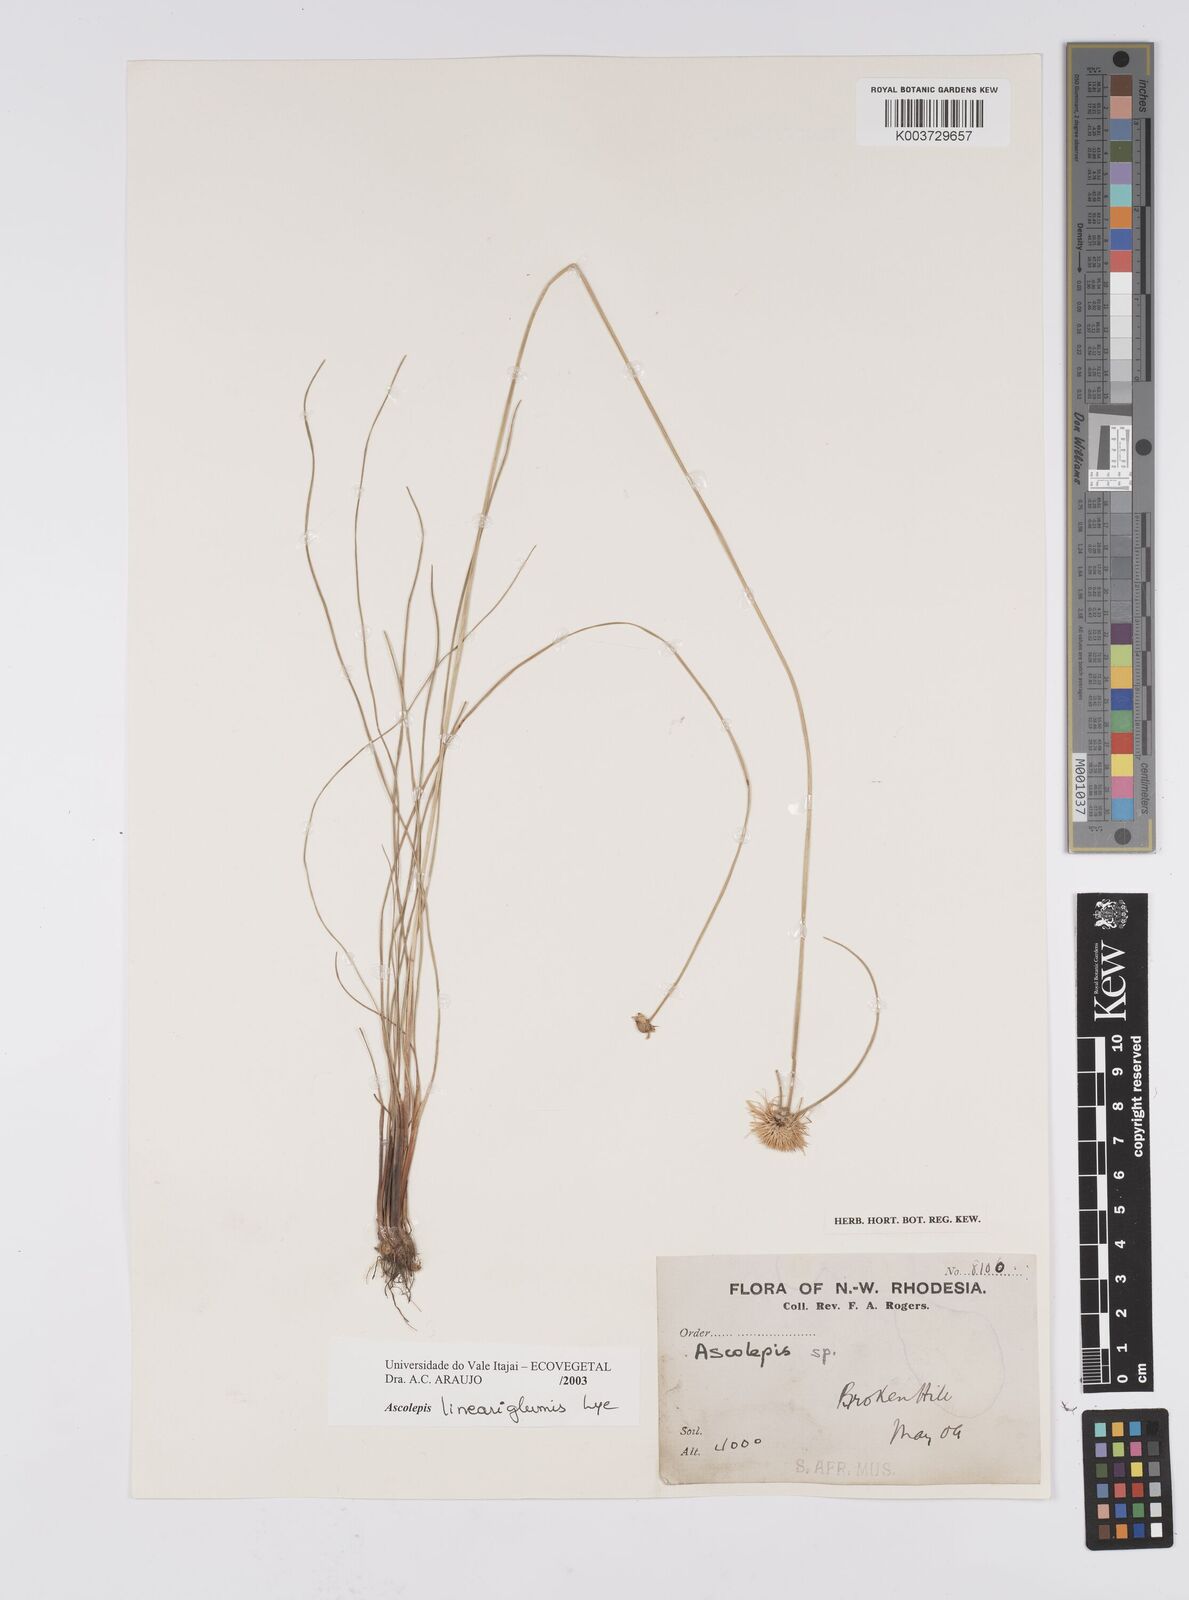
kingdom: Plantae
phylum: Tracheophyta
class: Liliopsida
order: Poales
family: Cyperaceae
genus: Cyperus
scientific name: Cyperus
